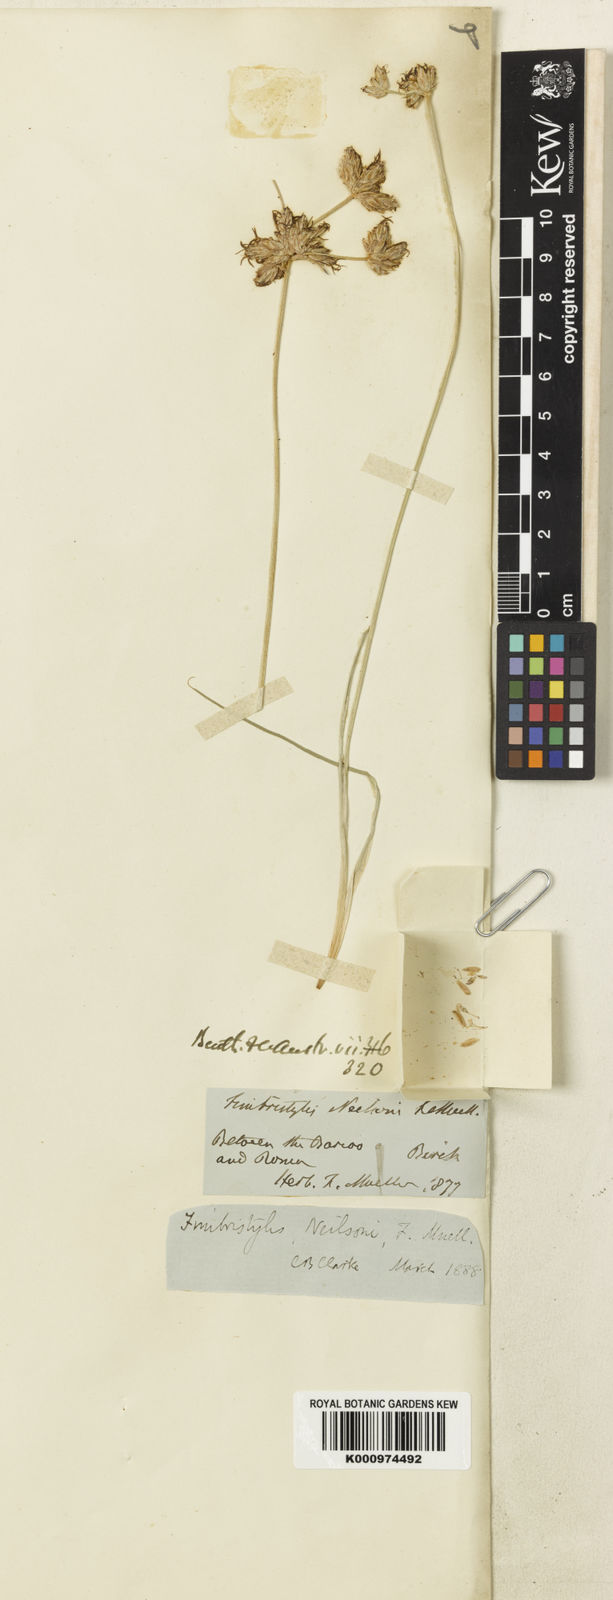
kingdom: Plantae
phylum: Tracheophyta
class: Liliopsida
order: Poales
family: Cyperaceae
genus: Fimbristylis
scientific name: Fimbristylis neilsonii
